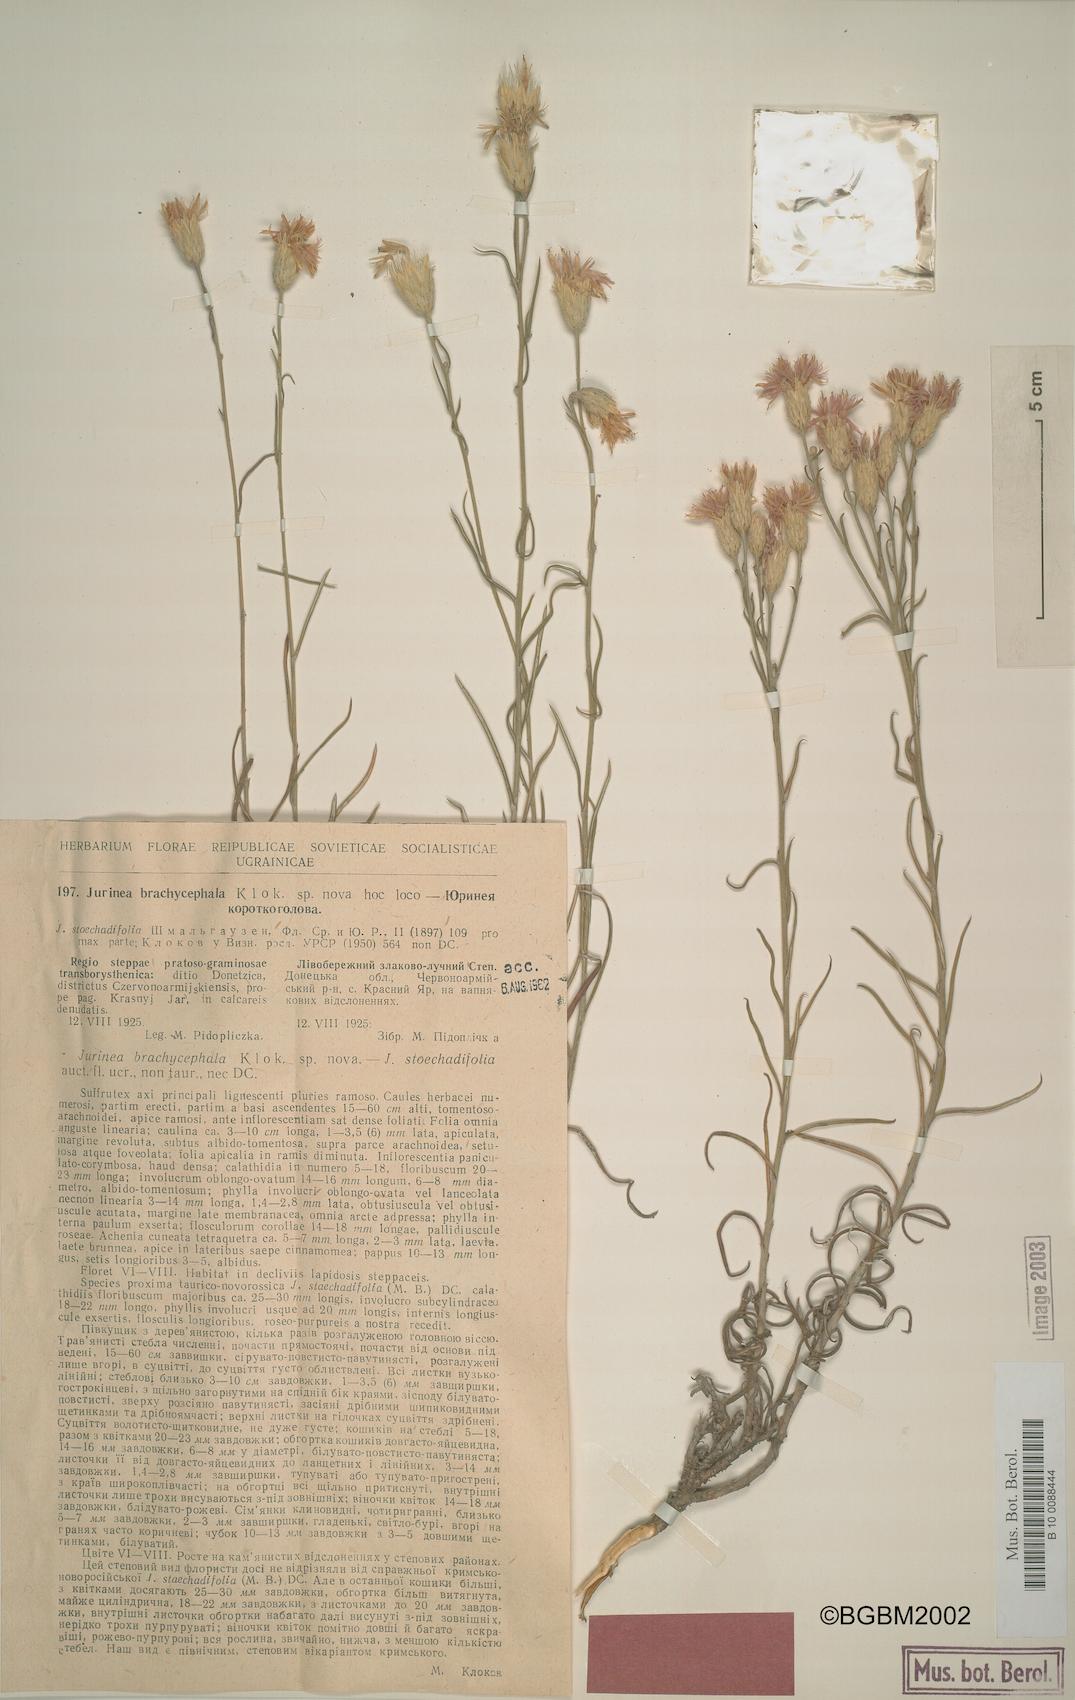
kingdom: Plantae
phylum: Tracheophyta
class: Magnoliopsida
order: Asterales
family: Asteraceae
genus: Jurinea
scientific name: Jurinea stoechadifolia
